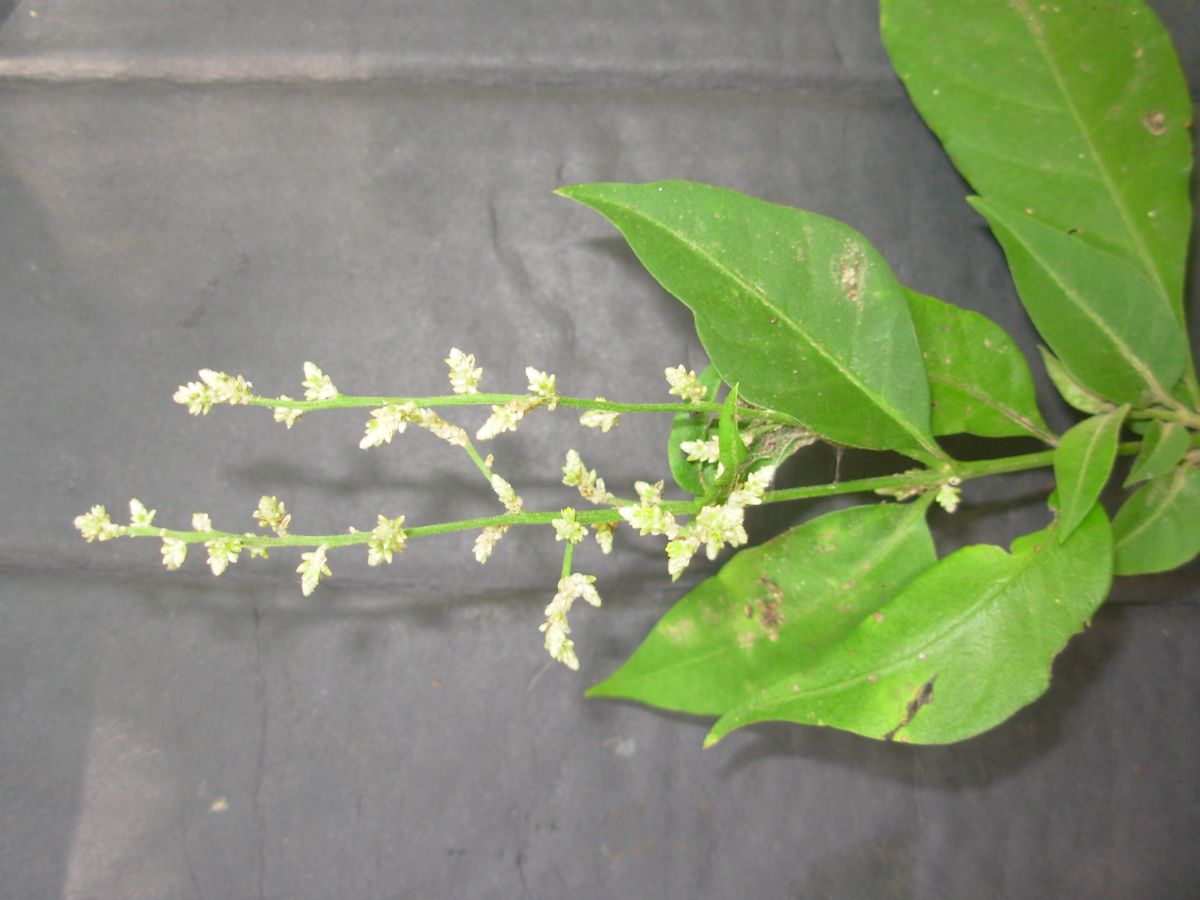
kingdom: Plantae
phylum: Tracheophyta
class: Magnoliopsida
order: Caryophyllales
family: Amaranthaceae
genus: Iresine
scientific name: Iresine nigra
